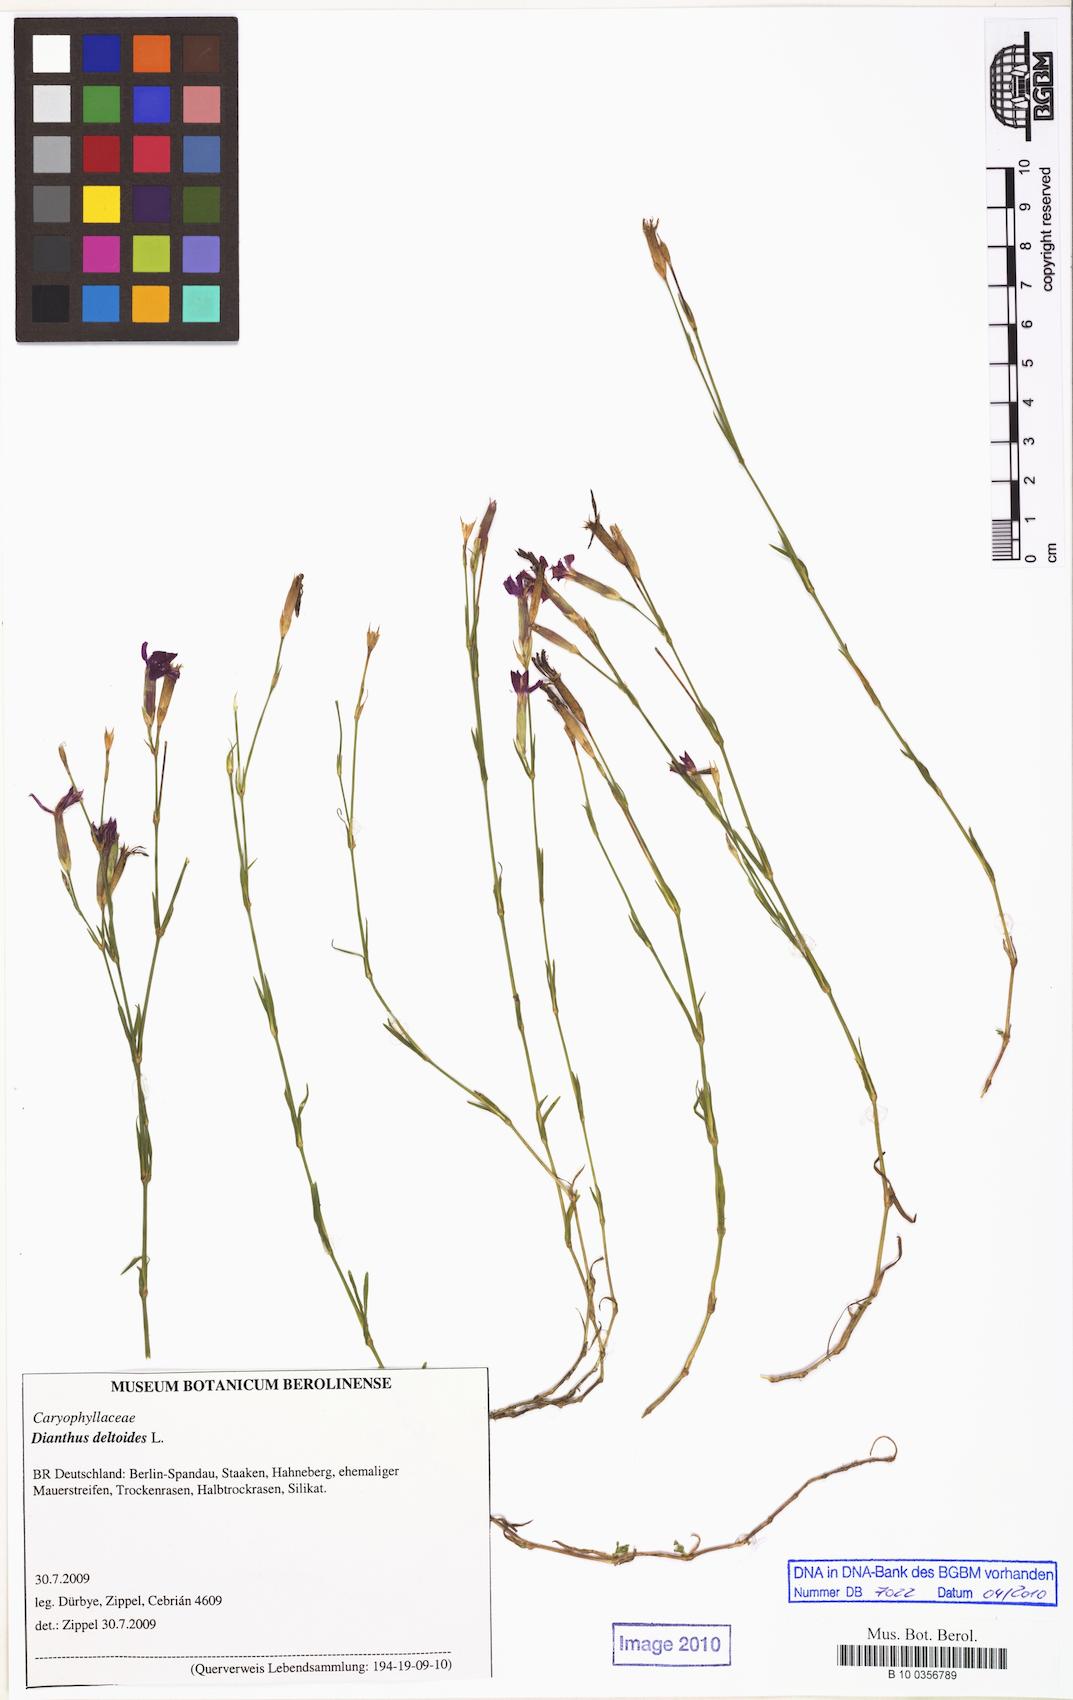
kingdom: Plantae
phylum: Tracheophyta
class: Magnoliopsida
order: Caryophyllales
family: Caryophyllaceae
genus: Dianthus
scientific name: Dianthus deltoides
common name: Maiden pink
